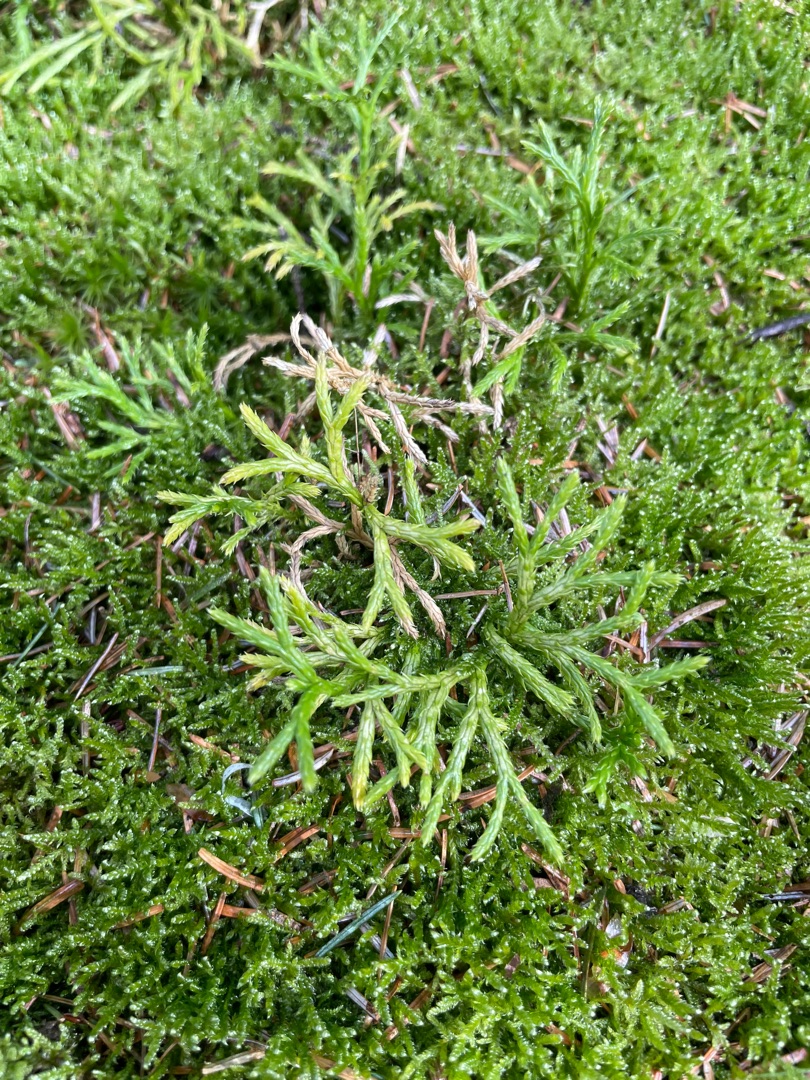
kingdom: Plantae
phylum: Tracheophyta
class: Lycopodiopsida
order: Lycopodiales
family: Lycopodiaceae
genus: Diphasiastrum
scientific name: Diphasiastrum complanatum
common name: Flad ulvefod
